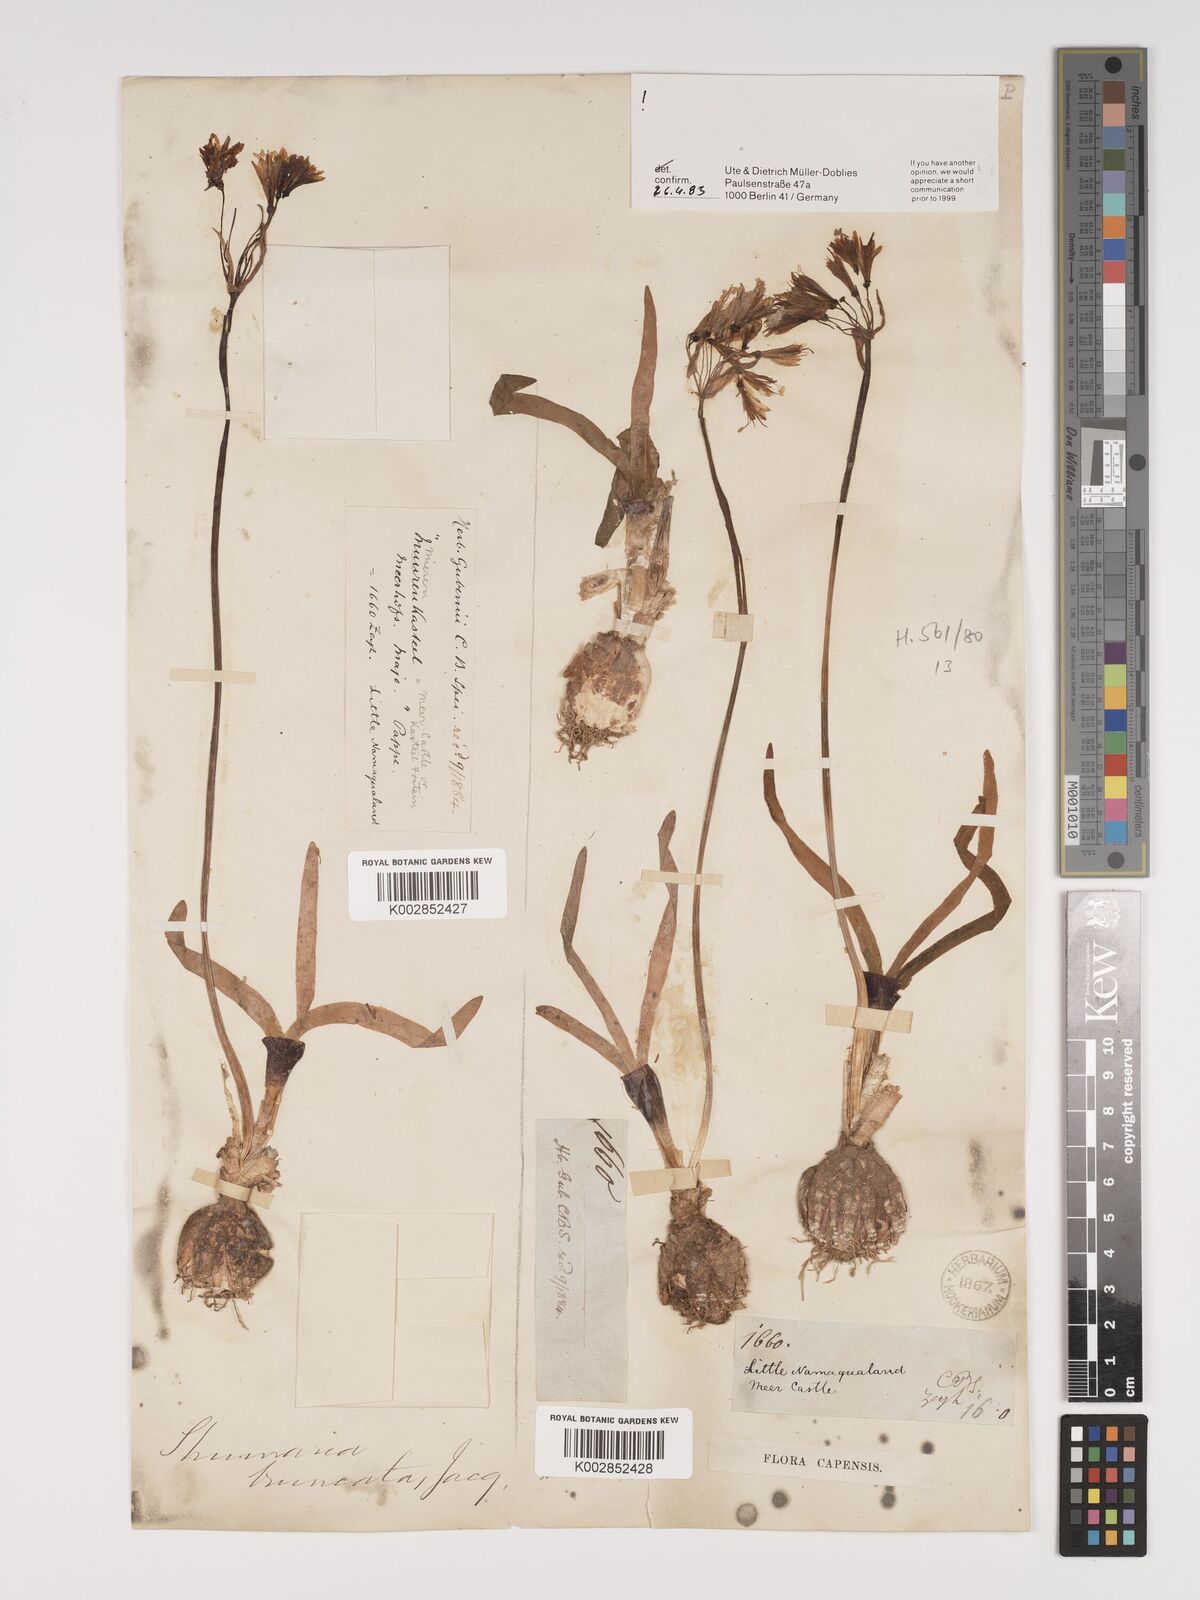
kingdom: Plantae
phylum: Tracheophyta
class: Liliopsida
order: Asparagales
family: Amaryllidaceae
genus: Strumaria
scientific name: Strumaria truncata
